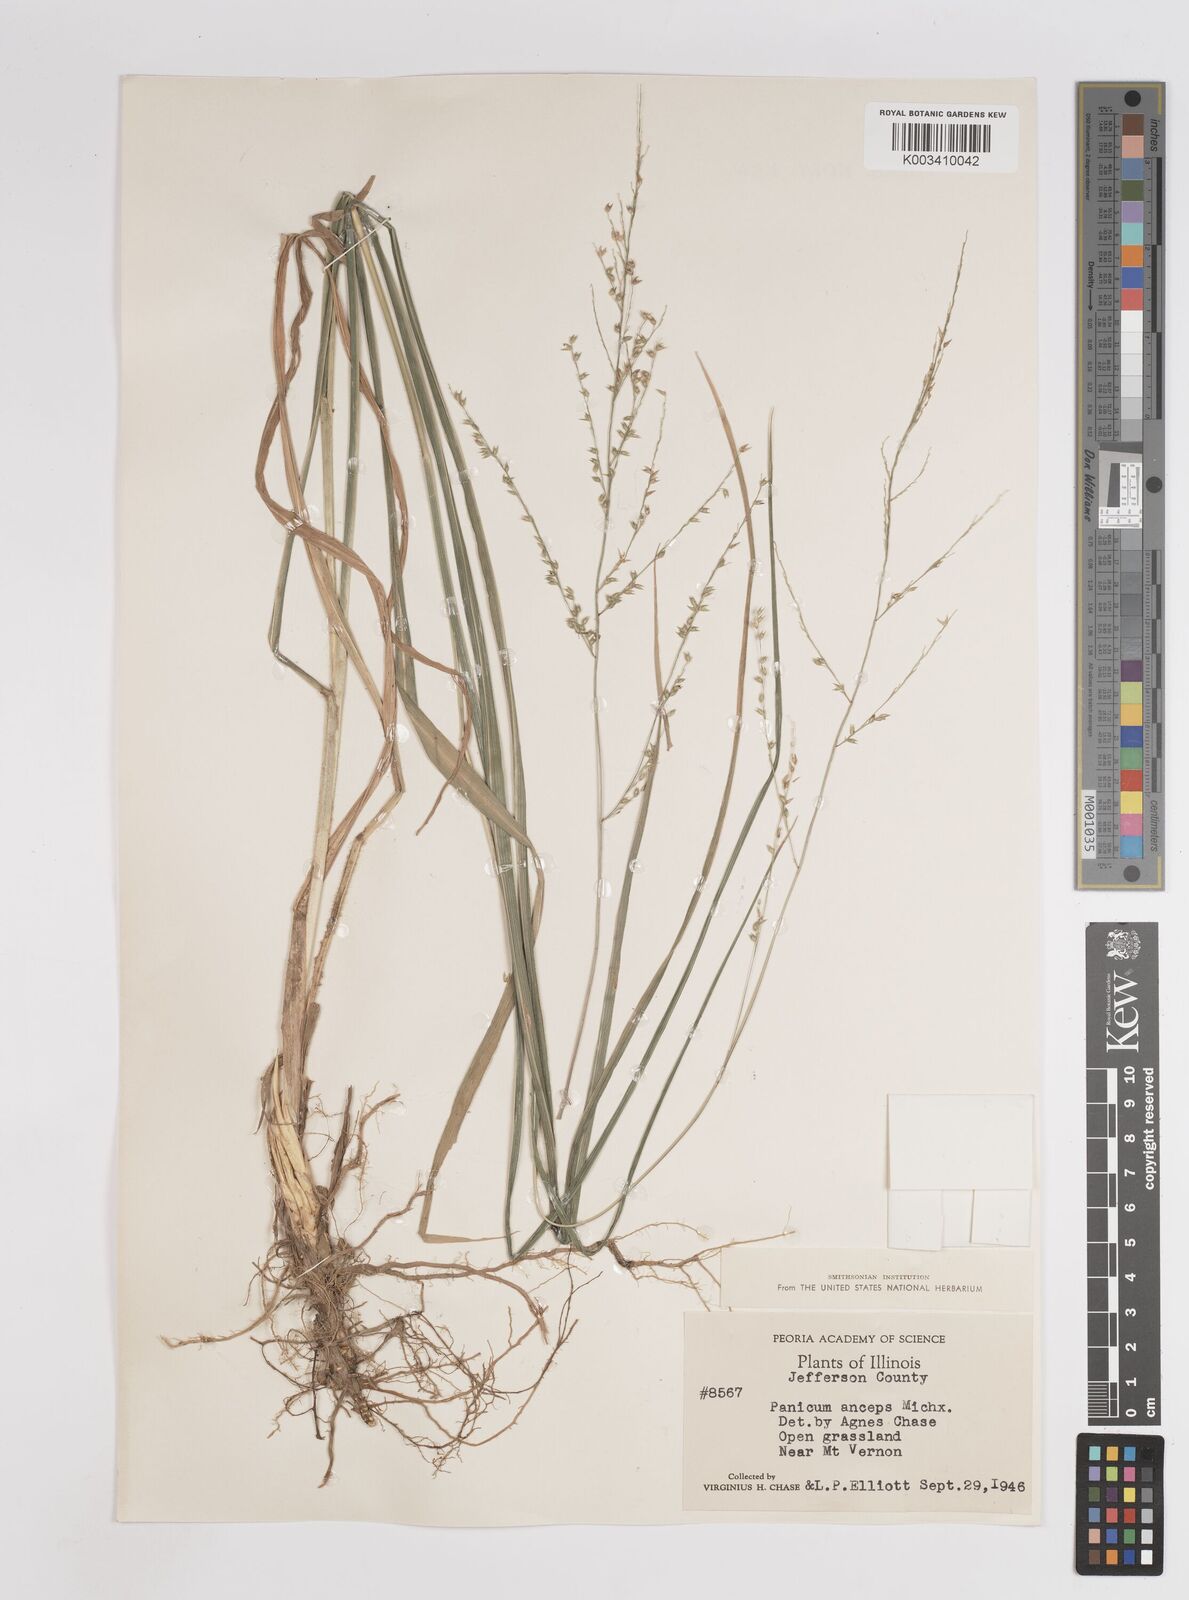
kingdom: Plantae
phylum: Tracheophyta
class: Liliopsida
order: Poales
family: Poaceae
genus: Coleataenia
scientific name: Coleataenia anceps
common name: Beaked panic grass
